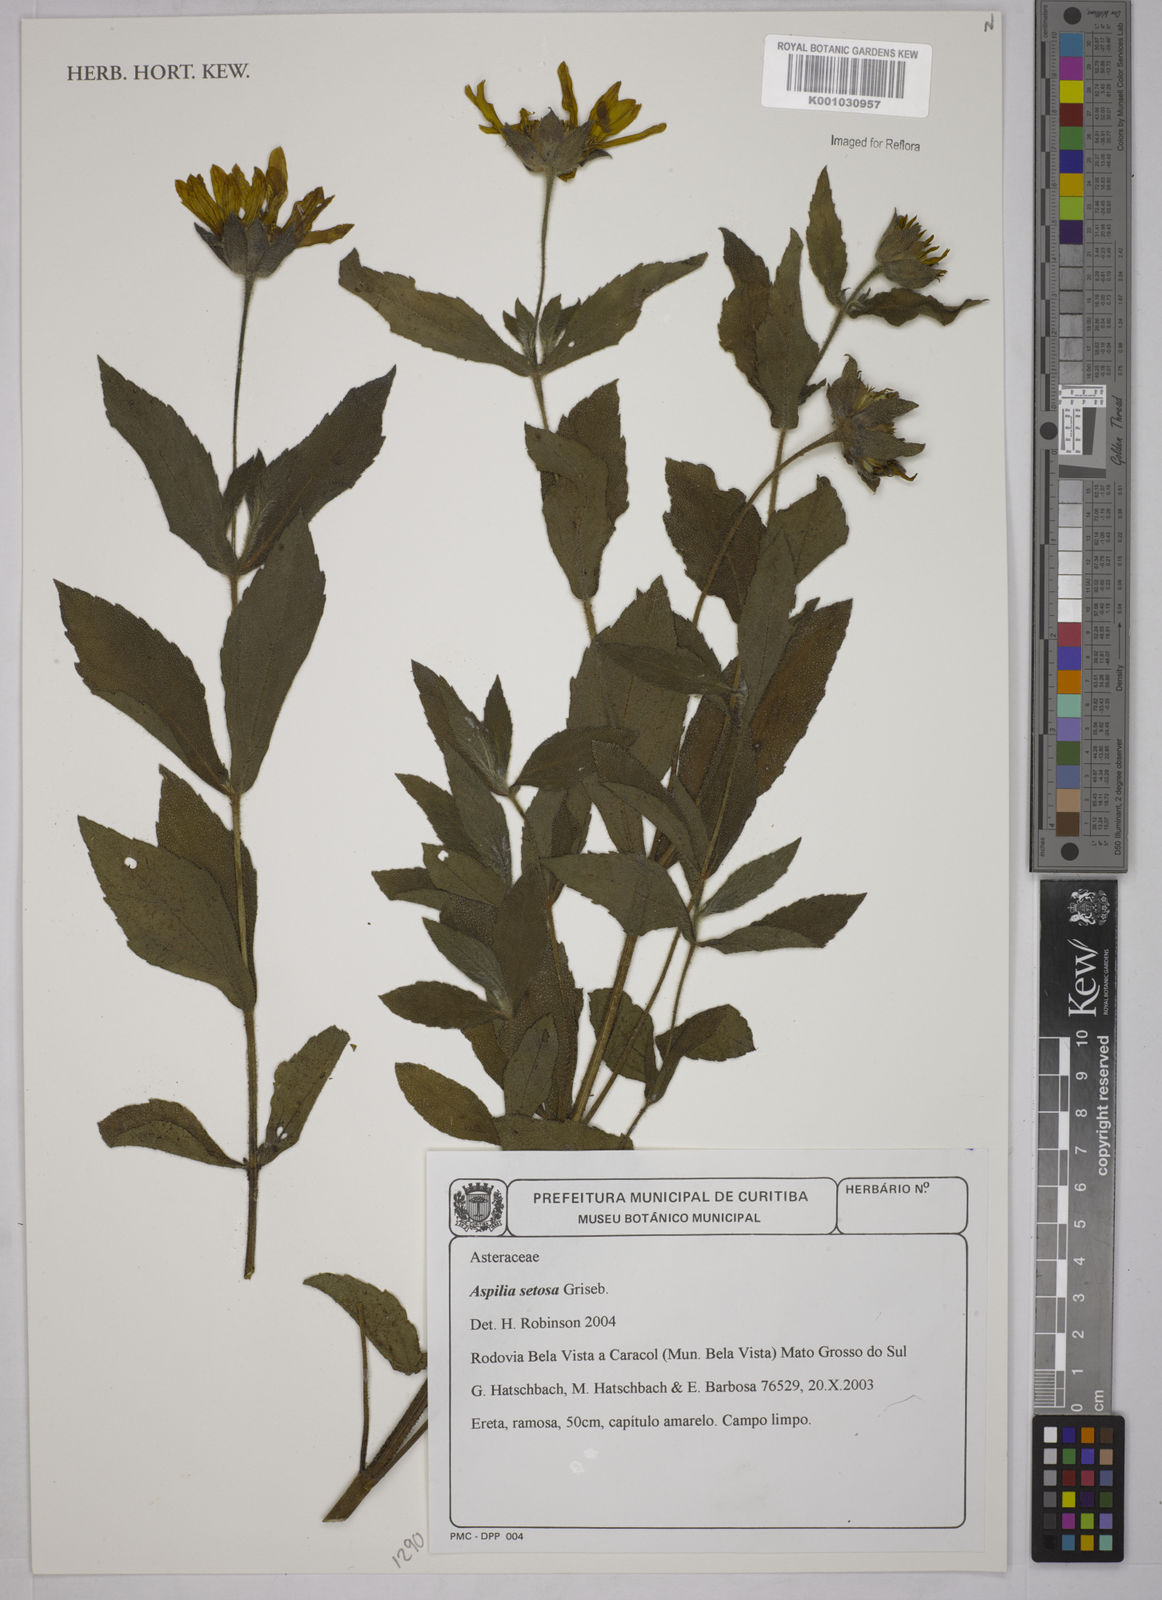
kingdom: Plantae
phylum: Tracheophyta
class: Magnoliopsida
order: Asterales
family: Asteraceae
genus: Aspilia
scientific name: Aspilia
